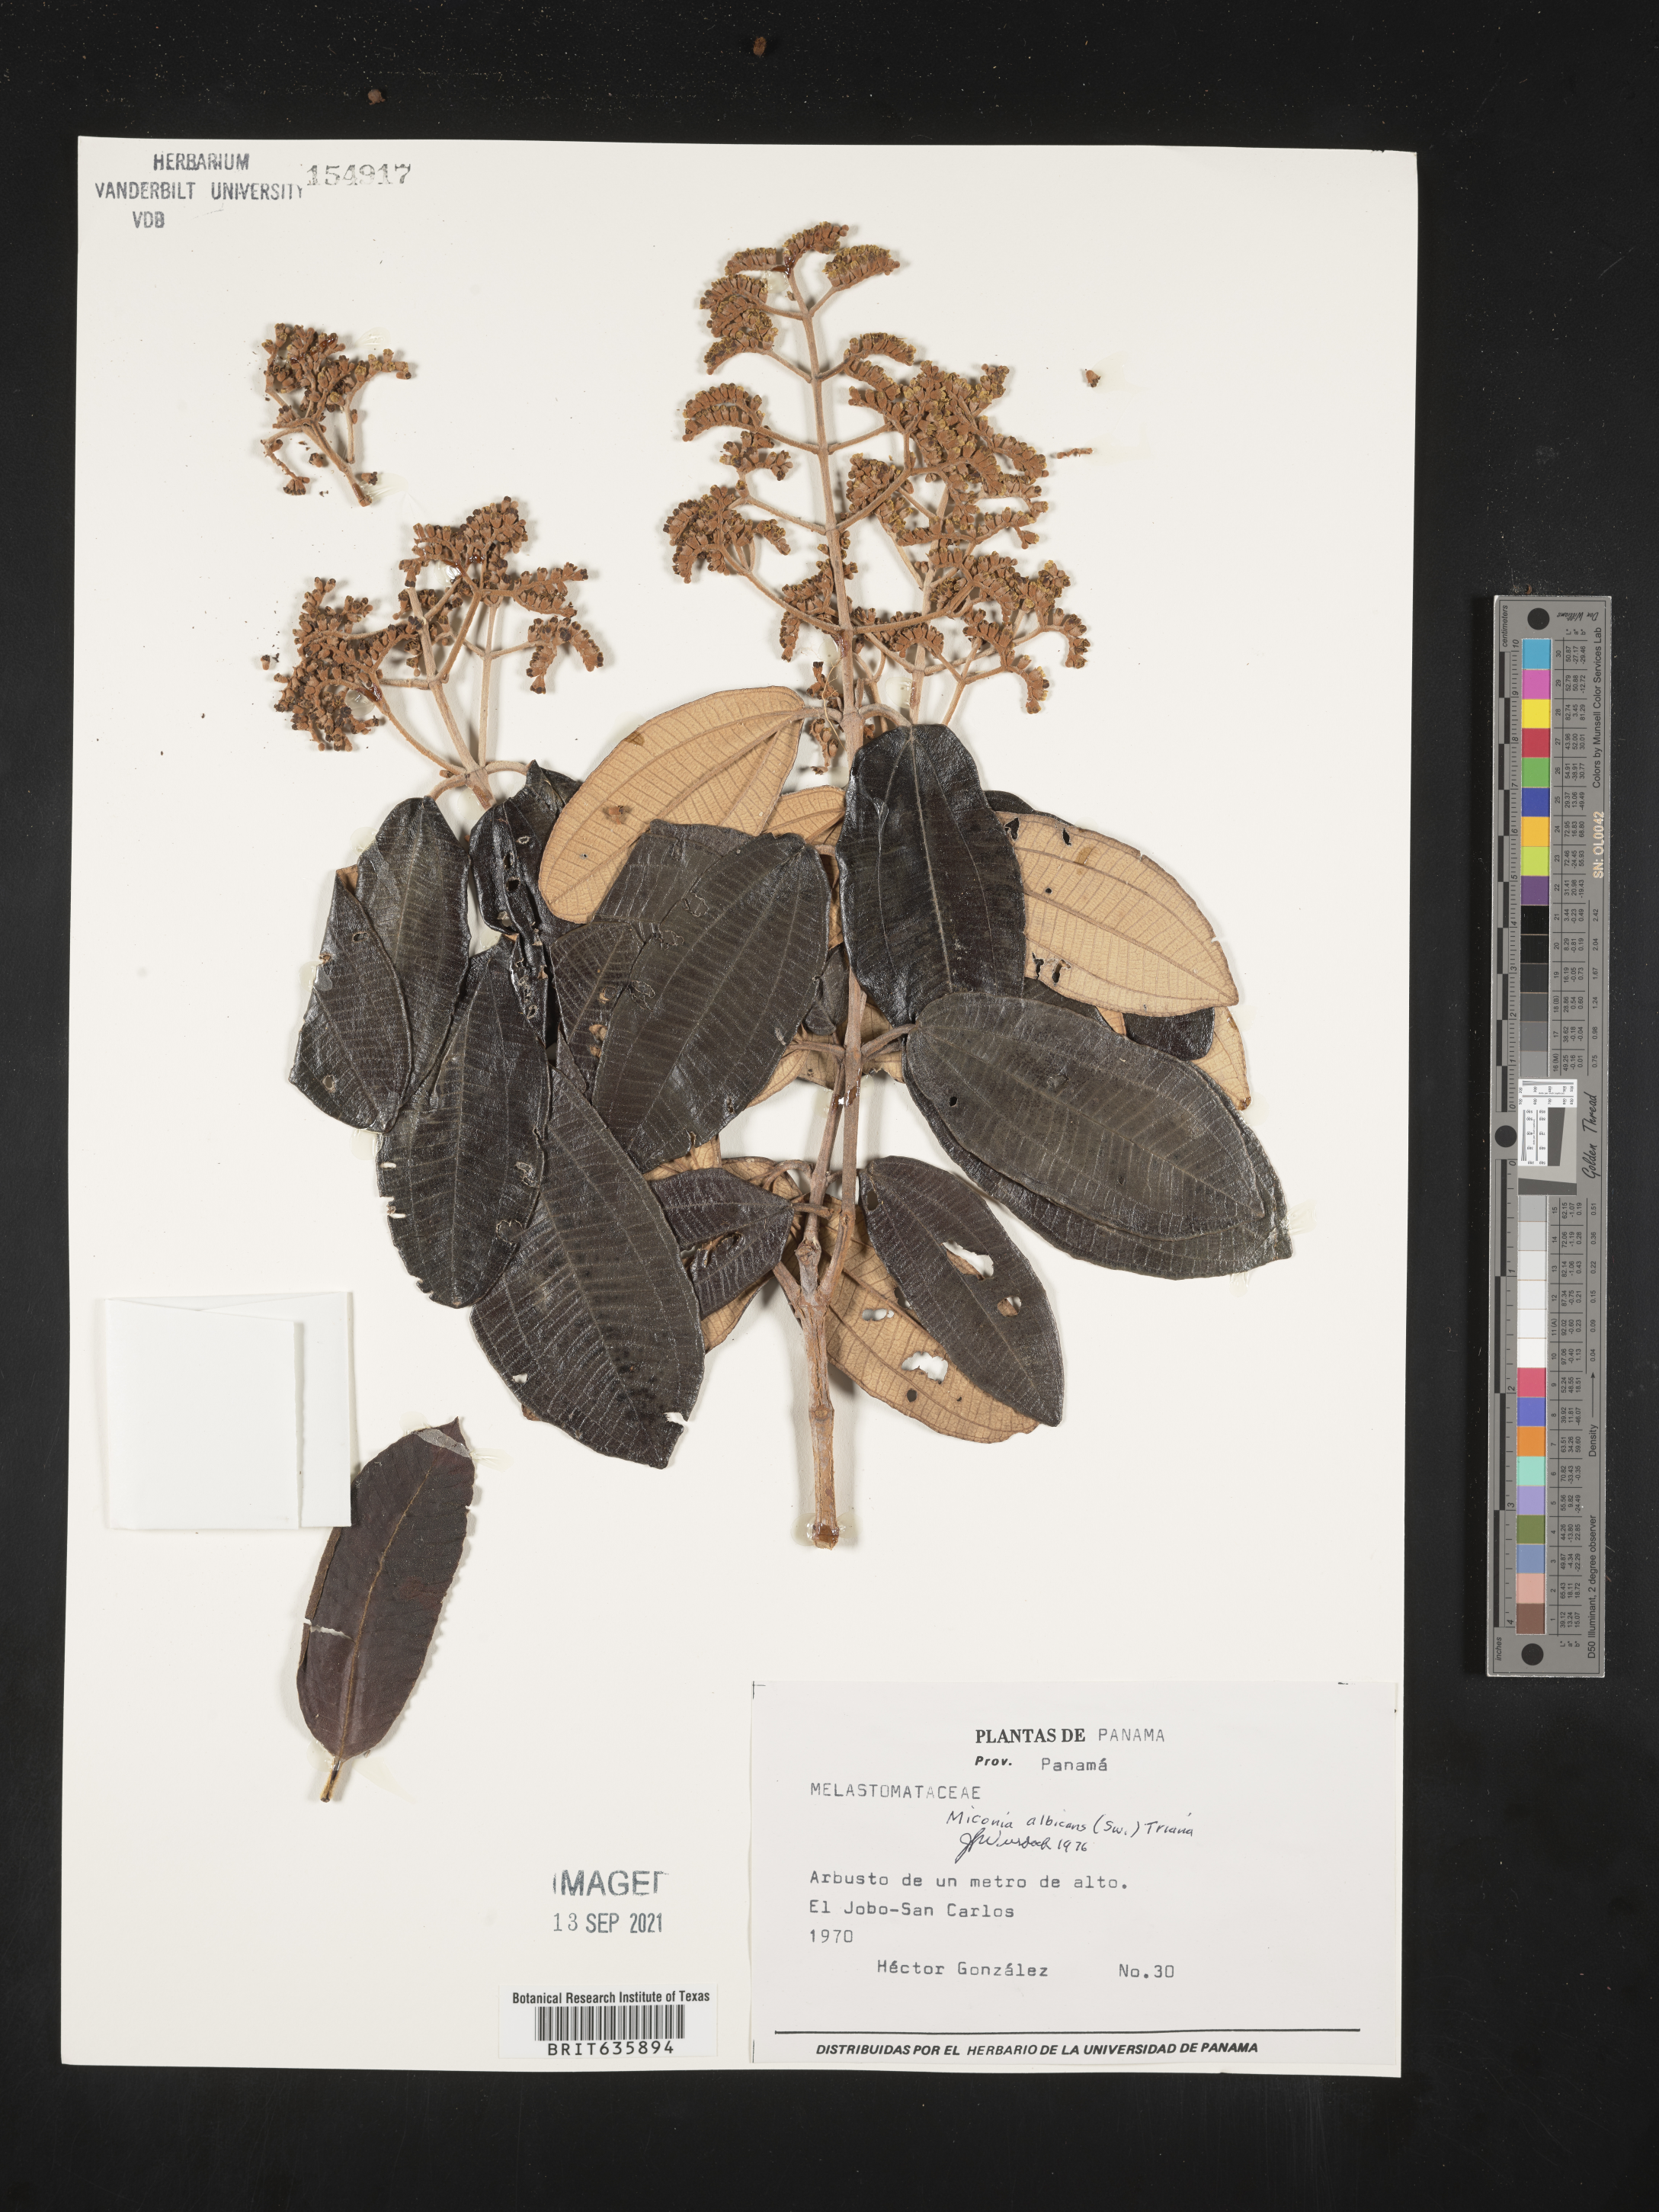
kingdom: Plantae
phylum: Tracheophyta
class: Magnoliopsida
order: Myrtales
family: Melastomataceae
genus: Miconia
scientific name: Miconia
